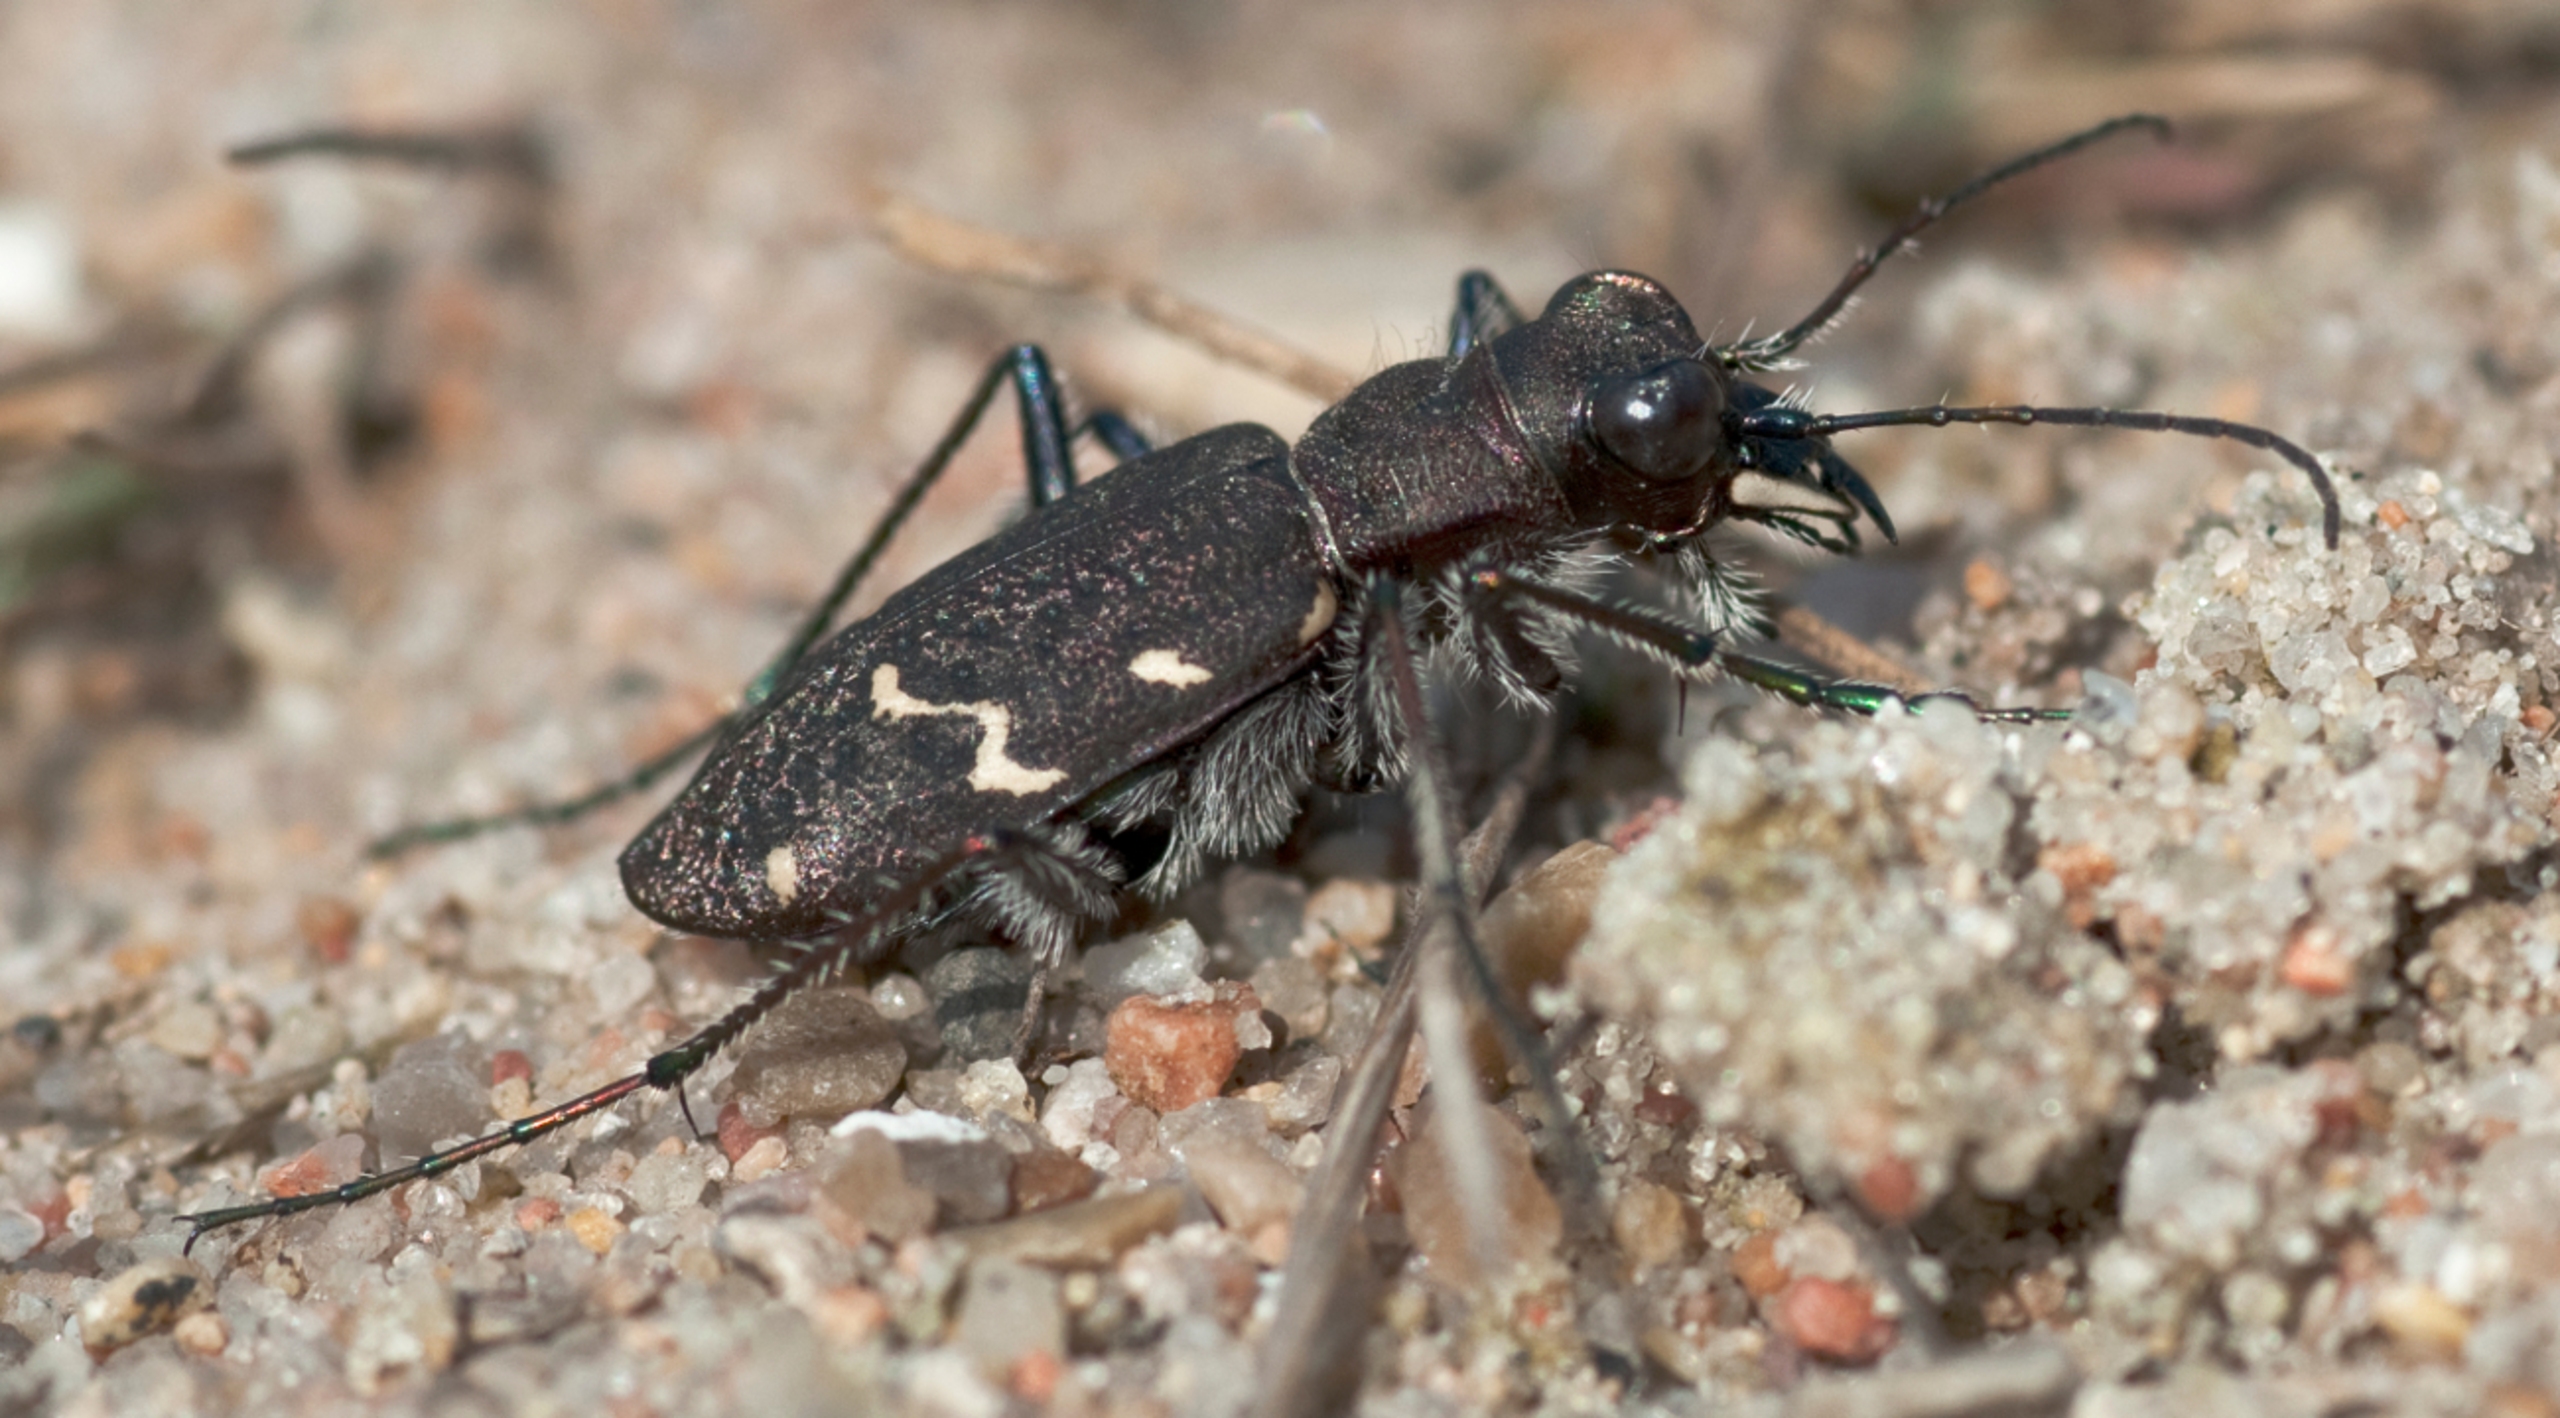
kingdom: Animalia
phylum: Arthropoda
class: Insecta
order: Coleoptera
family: Carabidae
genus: Cicindela
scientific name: Cicindela sylvatica
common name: Stor sandspringer
